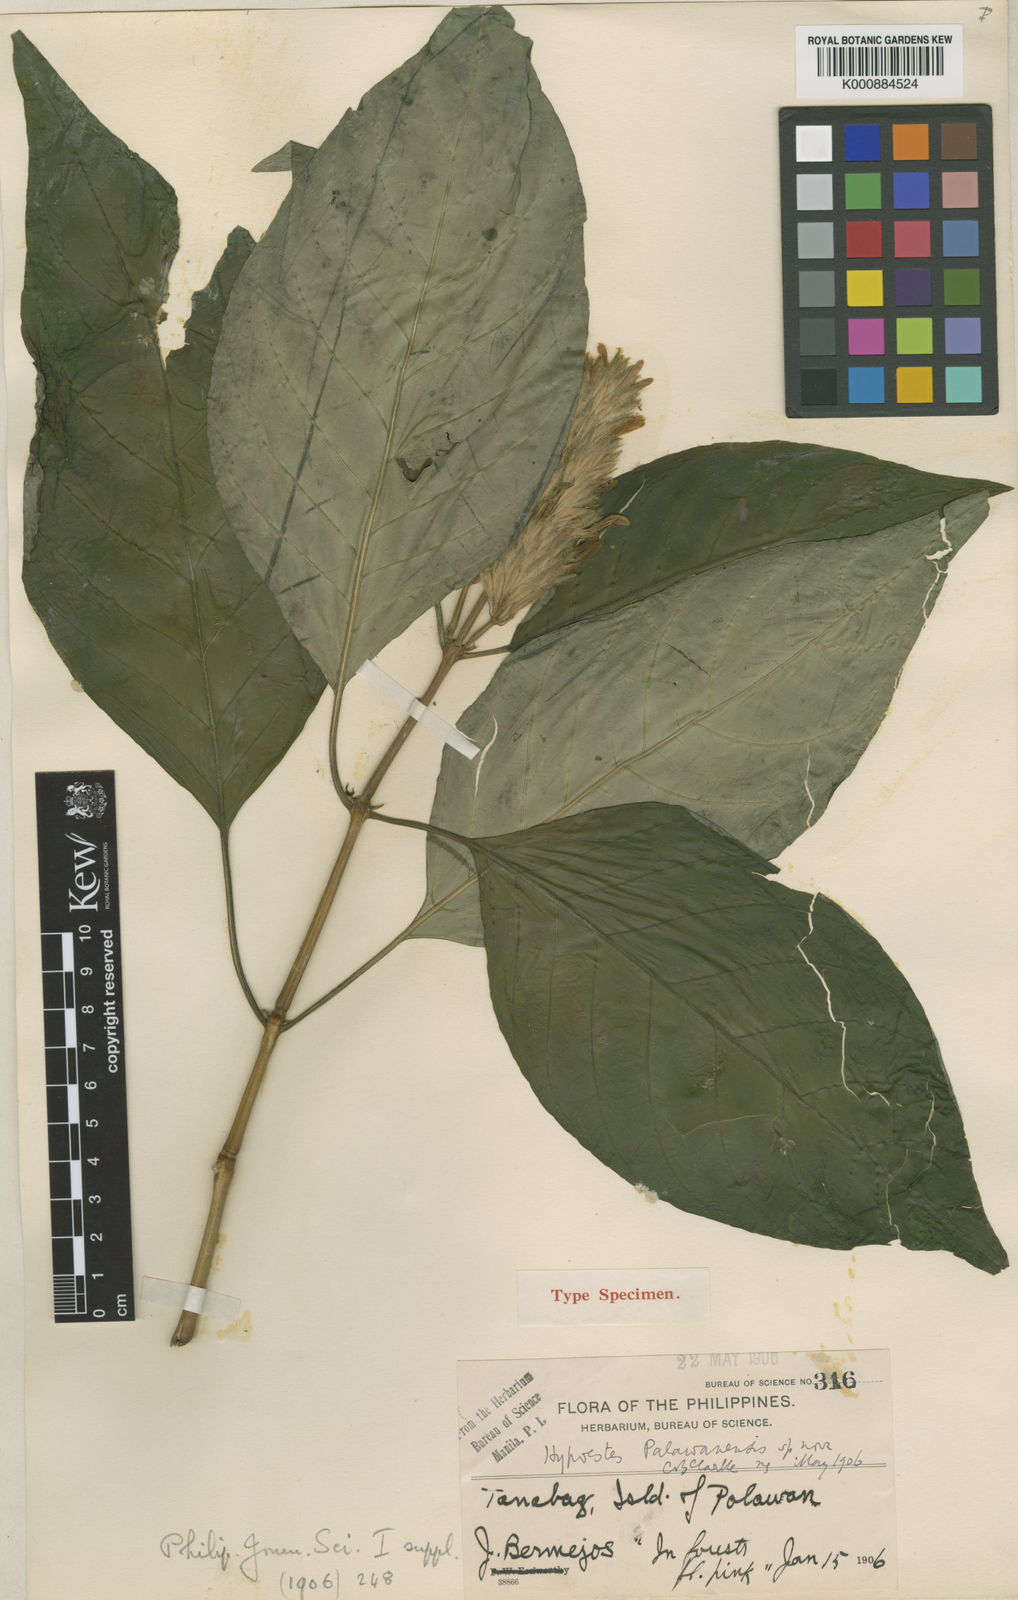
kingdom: Plantae
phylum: Tracheophyta
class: Magnoliopsida
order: Lamiales
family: Acanthaceae
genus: Hypoestes
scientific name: Hypoestes palawanensis
